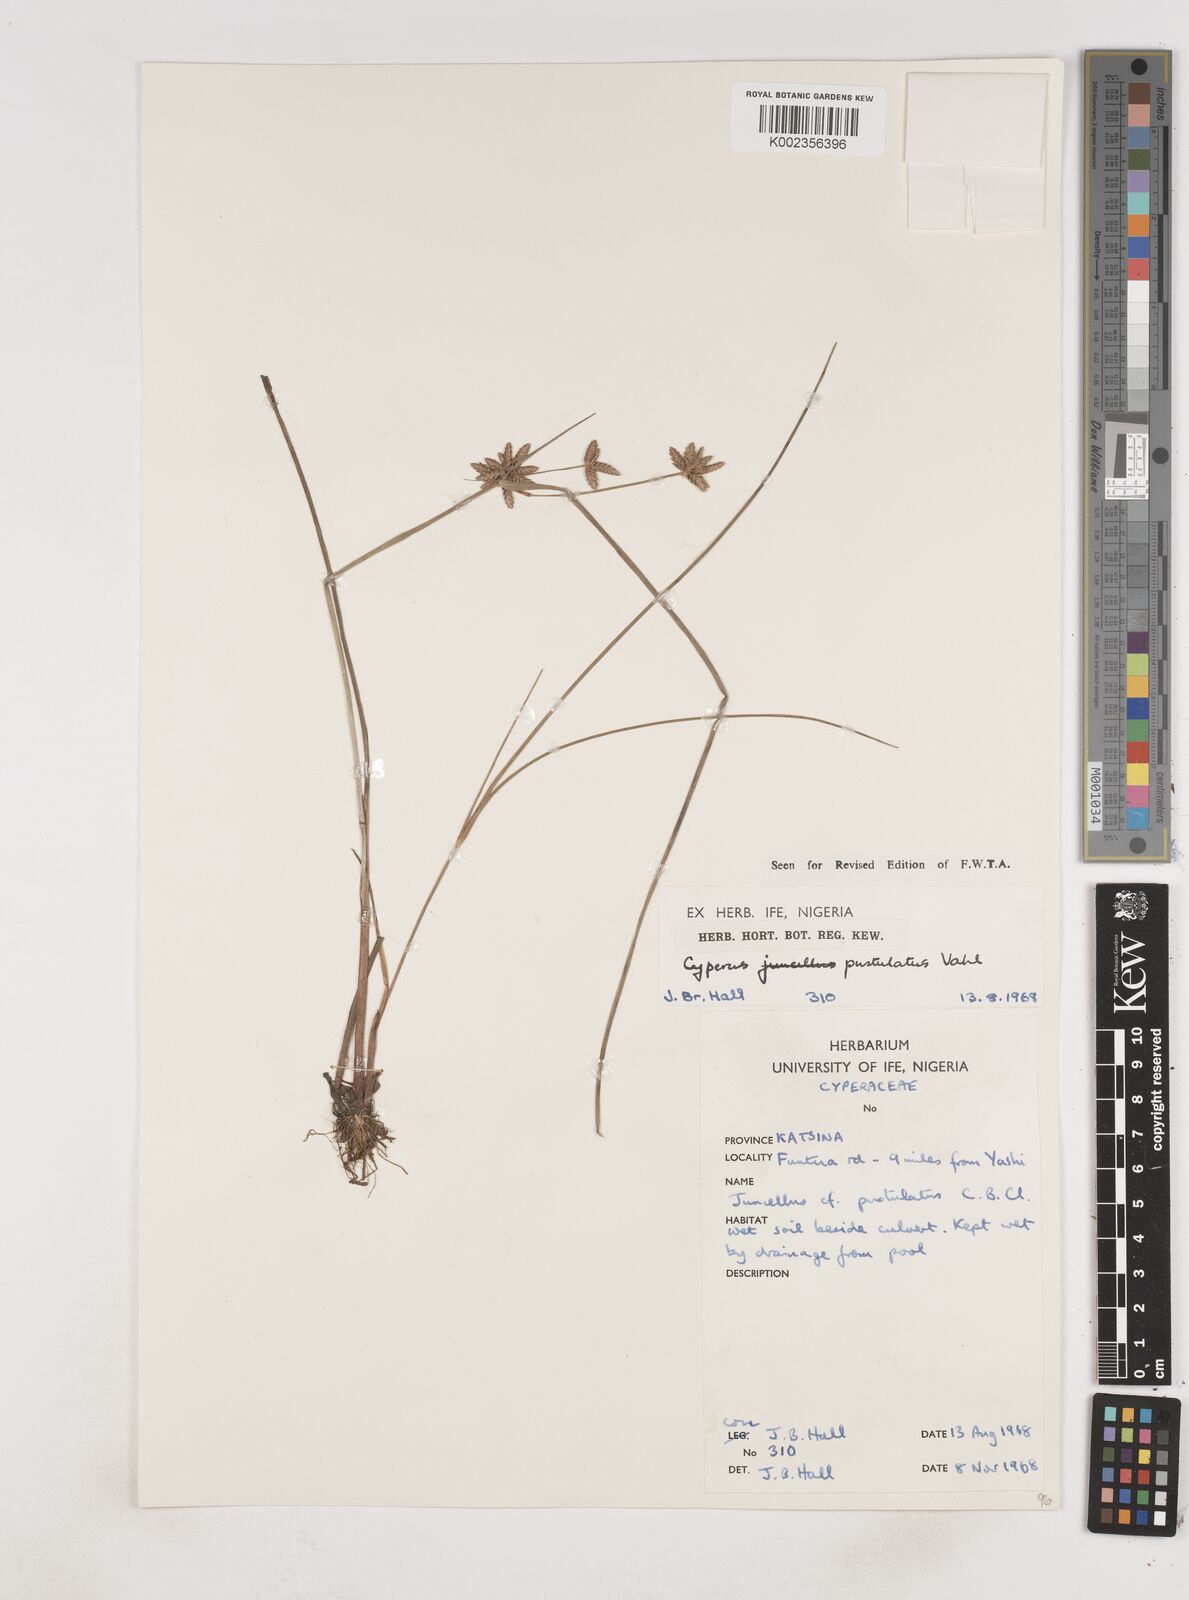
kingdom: Plantae
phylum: Tracheophyta
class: Liliopsida
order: Poales
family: Cyperaceae
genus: Cyperus
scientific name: Cyperus pustulatus
